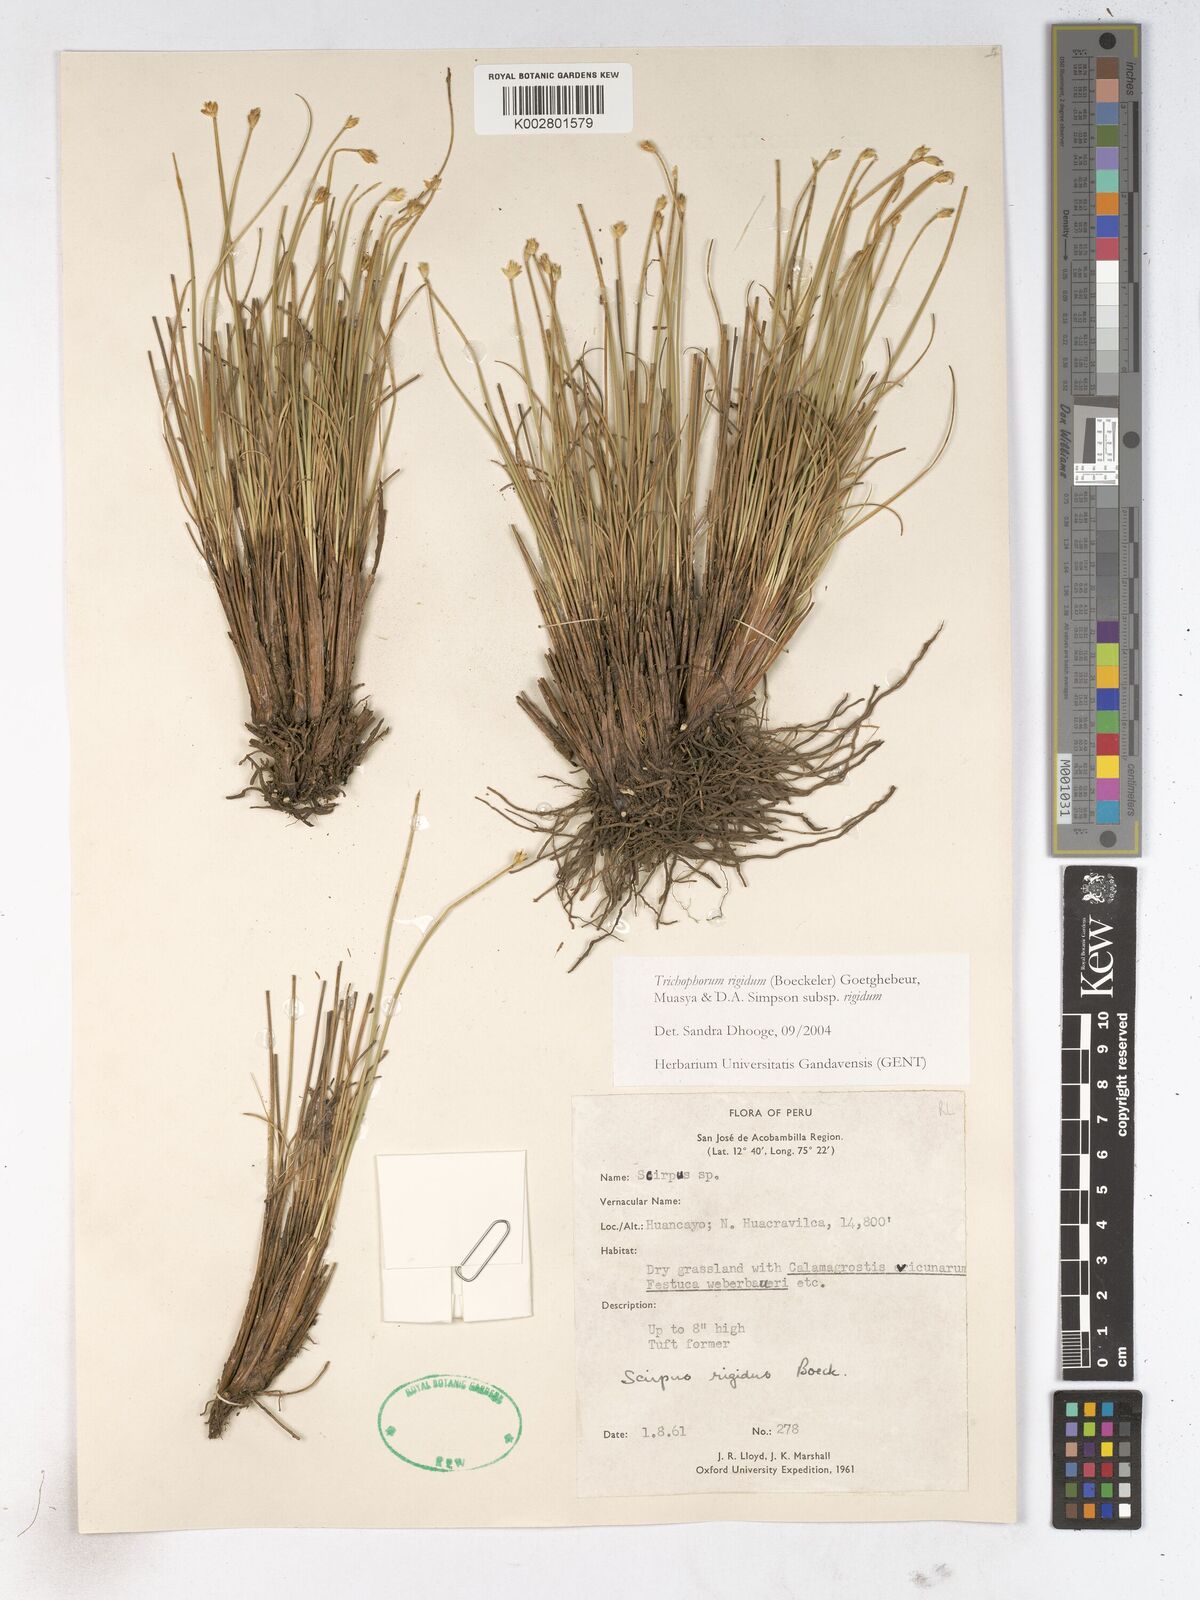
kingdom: Plantae
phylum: Tracheophyta
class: Liliopsida
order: Poales
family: Cyperaceae
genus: Trichophorum
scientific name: Trichophorum rigidum
